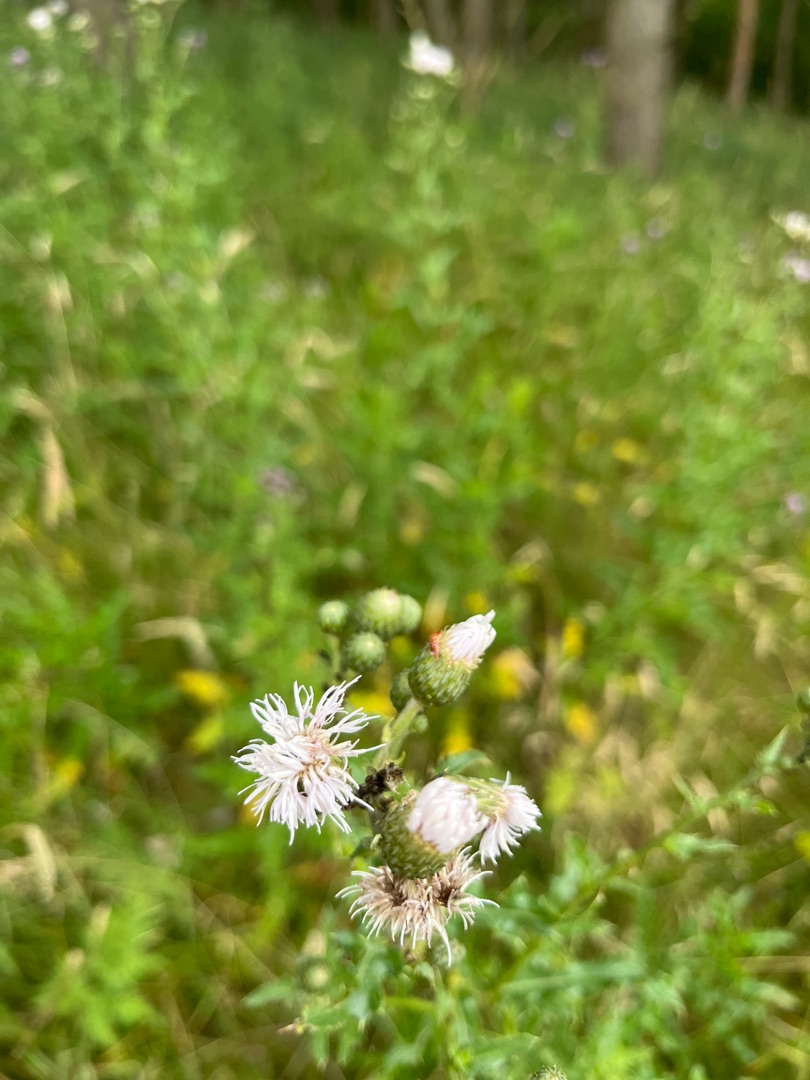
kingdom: Plantae
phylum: Tracheophyta
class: Magnoliopsida
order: Asterales
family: Asteraceae
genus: Cirsium
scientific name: Cirsium arvense
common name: Ager-tidsel
